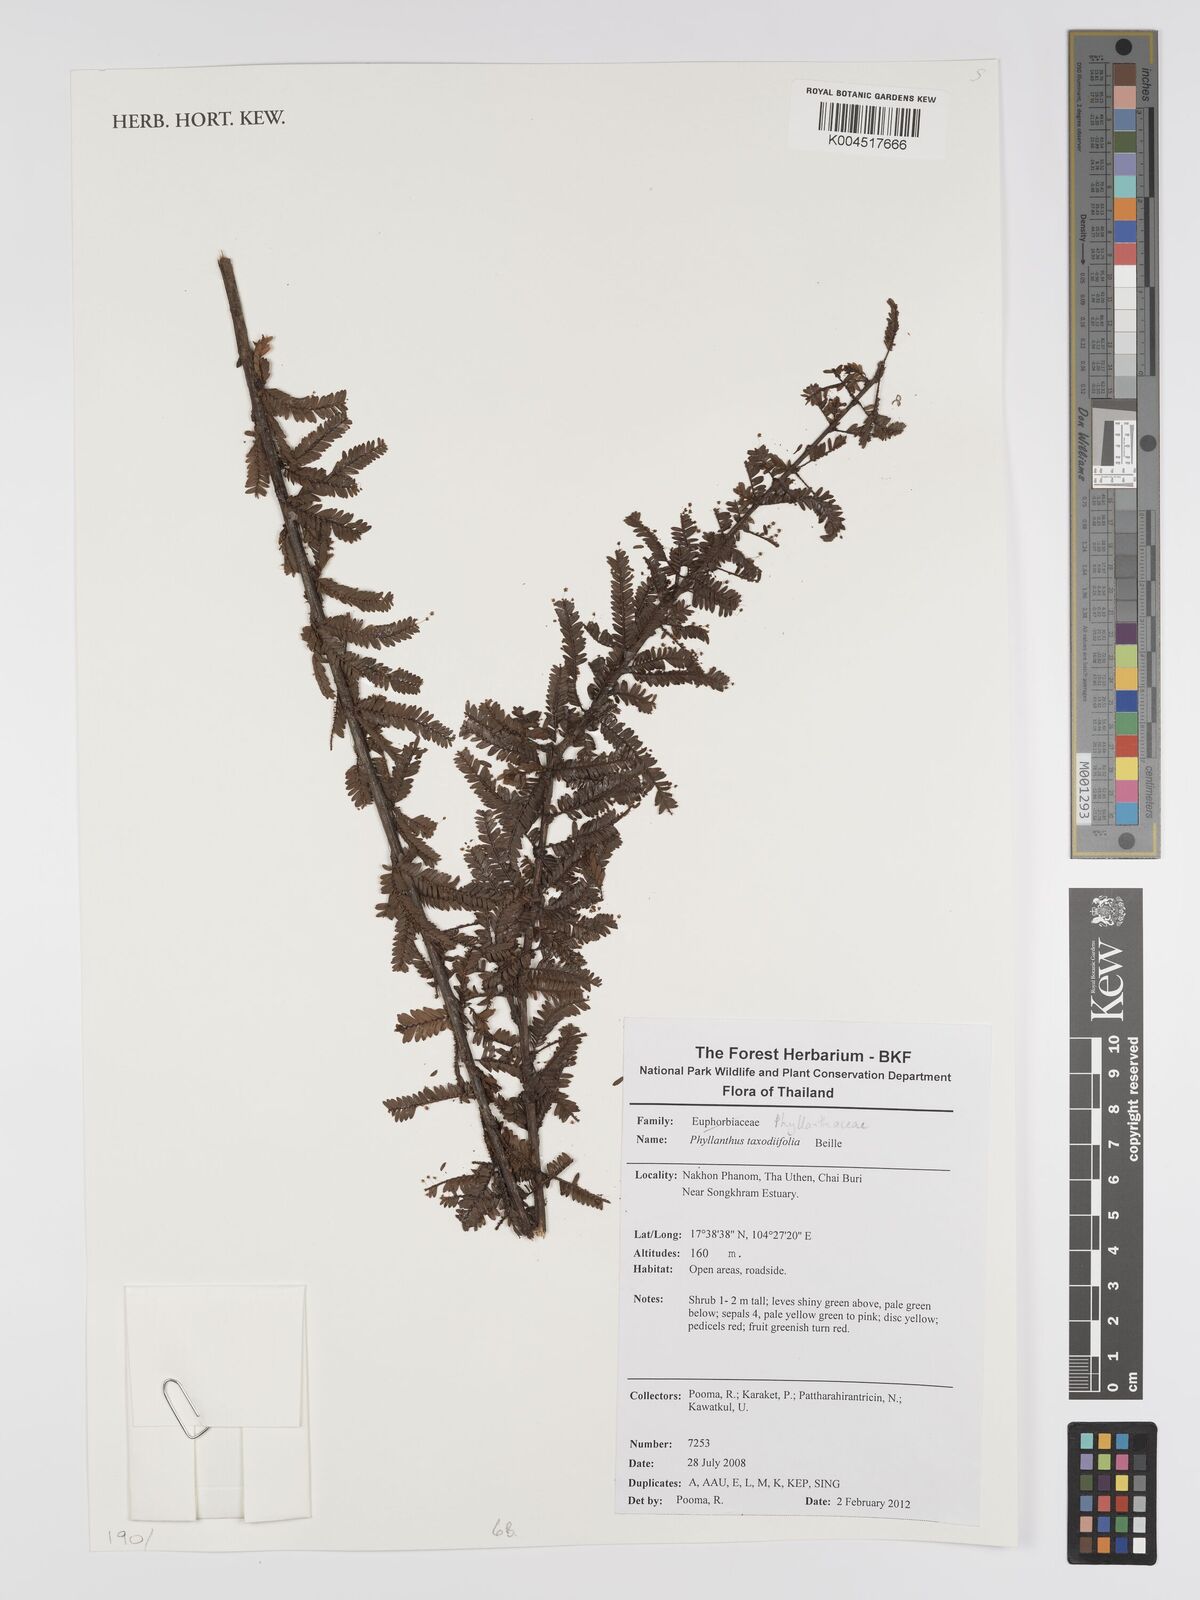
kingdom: Plantae
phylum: Tracheophyta
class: Magnoliopsida
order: Malpighiales
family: Phyllanthaceae
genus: Phyllanthus
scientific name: Phyllanthus taxodiifolius
